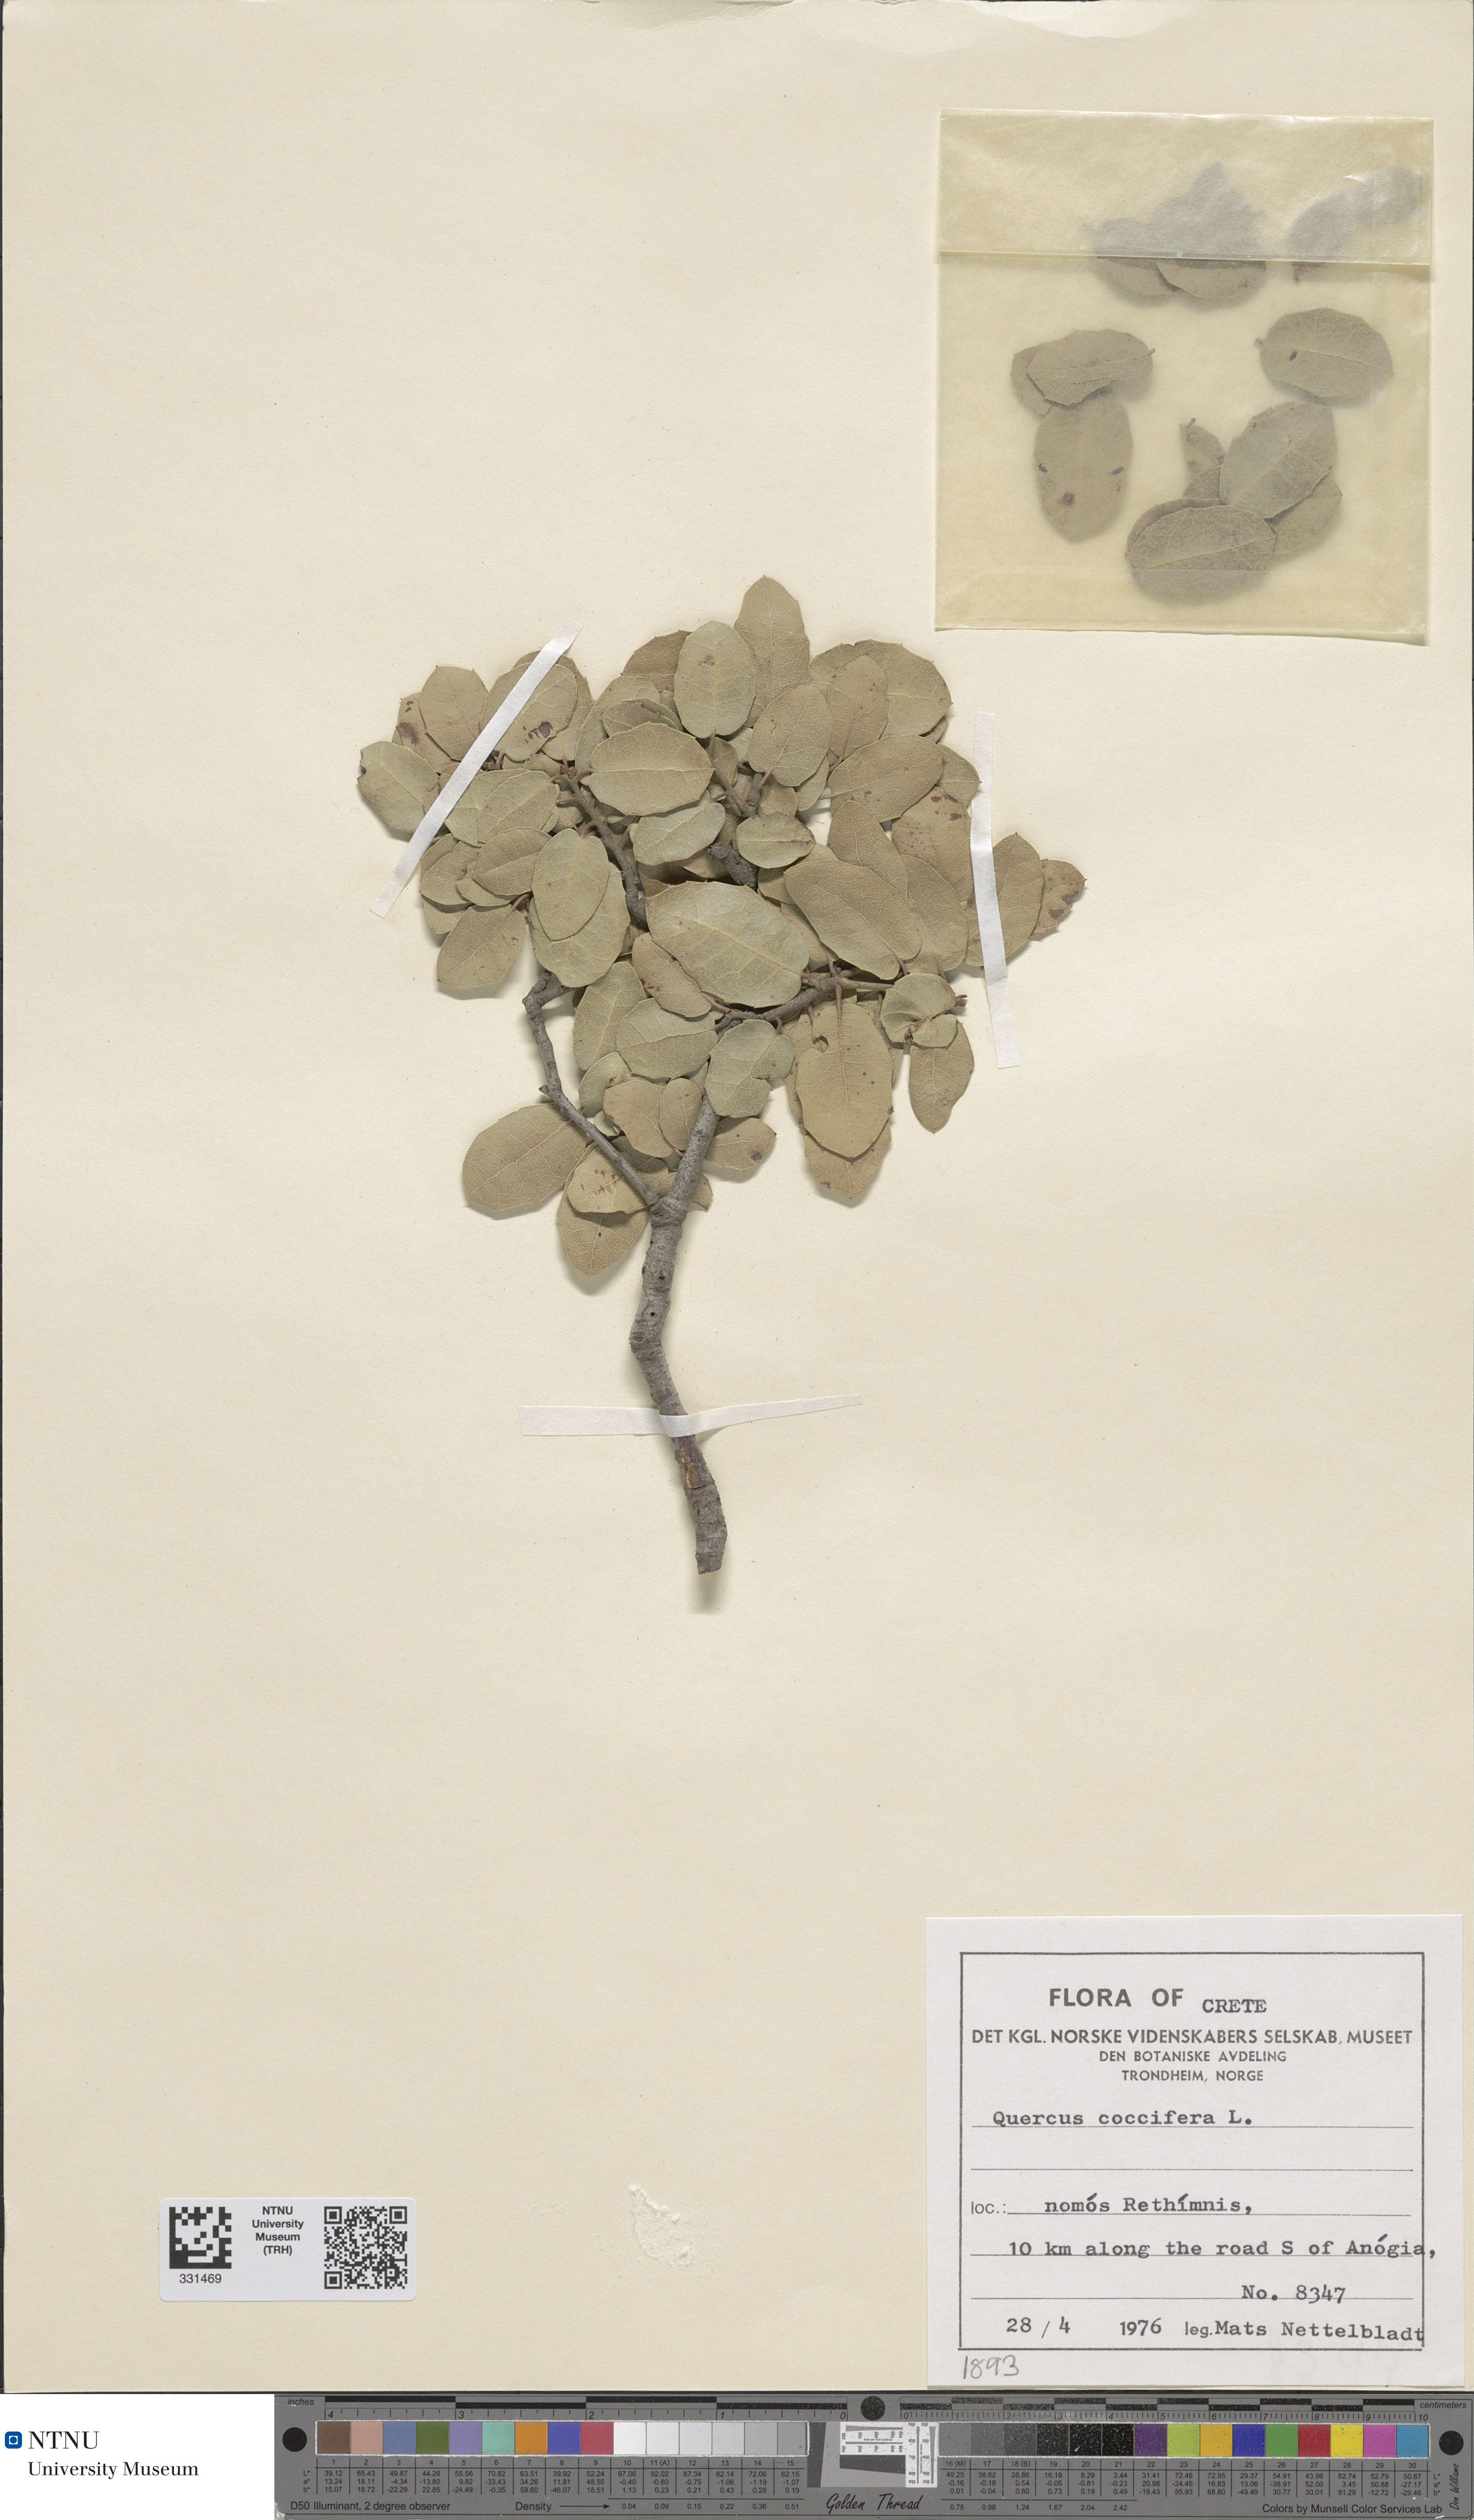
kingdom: Plantae
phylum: Tracheophyta
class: Magnoliopsida
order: Fagales
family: Fagaceae
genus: Quercus
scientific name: Quercus coccifera
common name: Kermes oak
